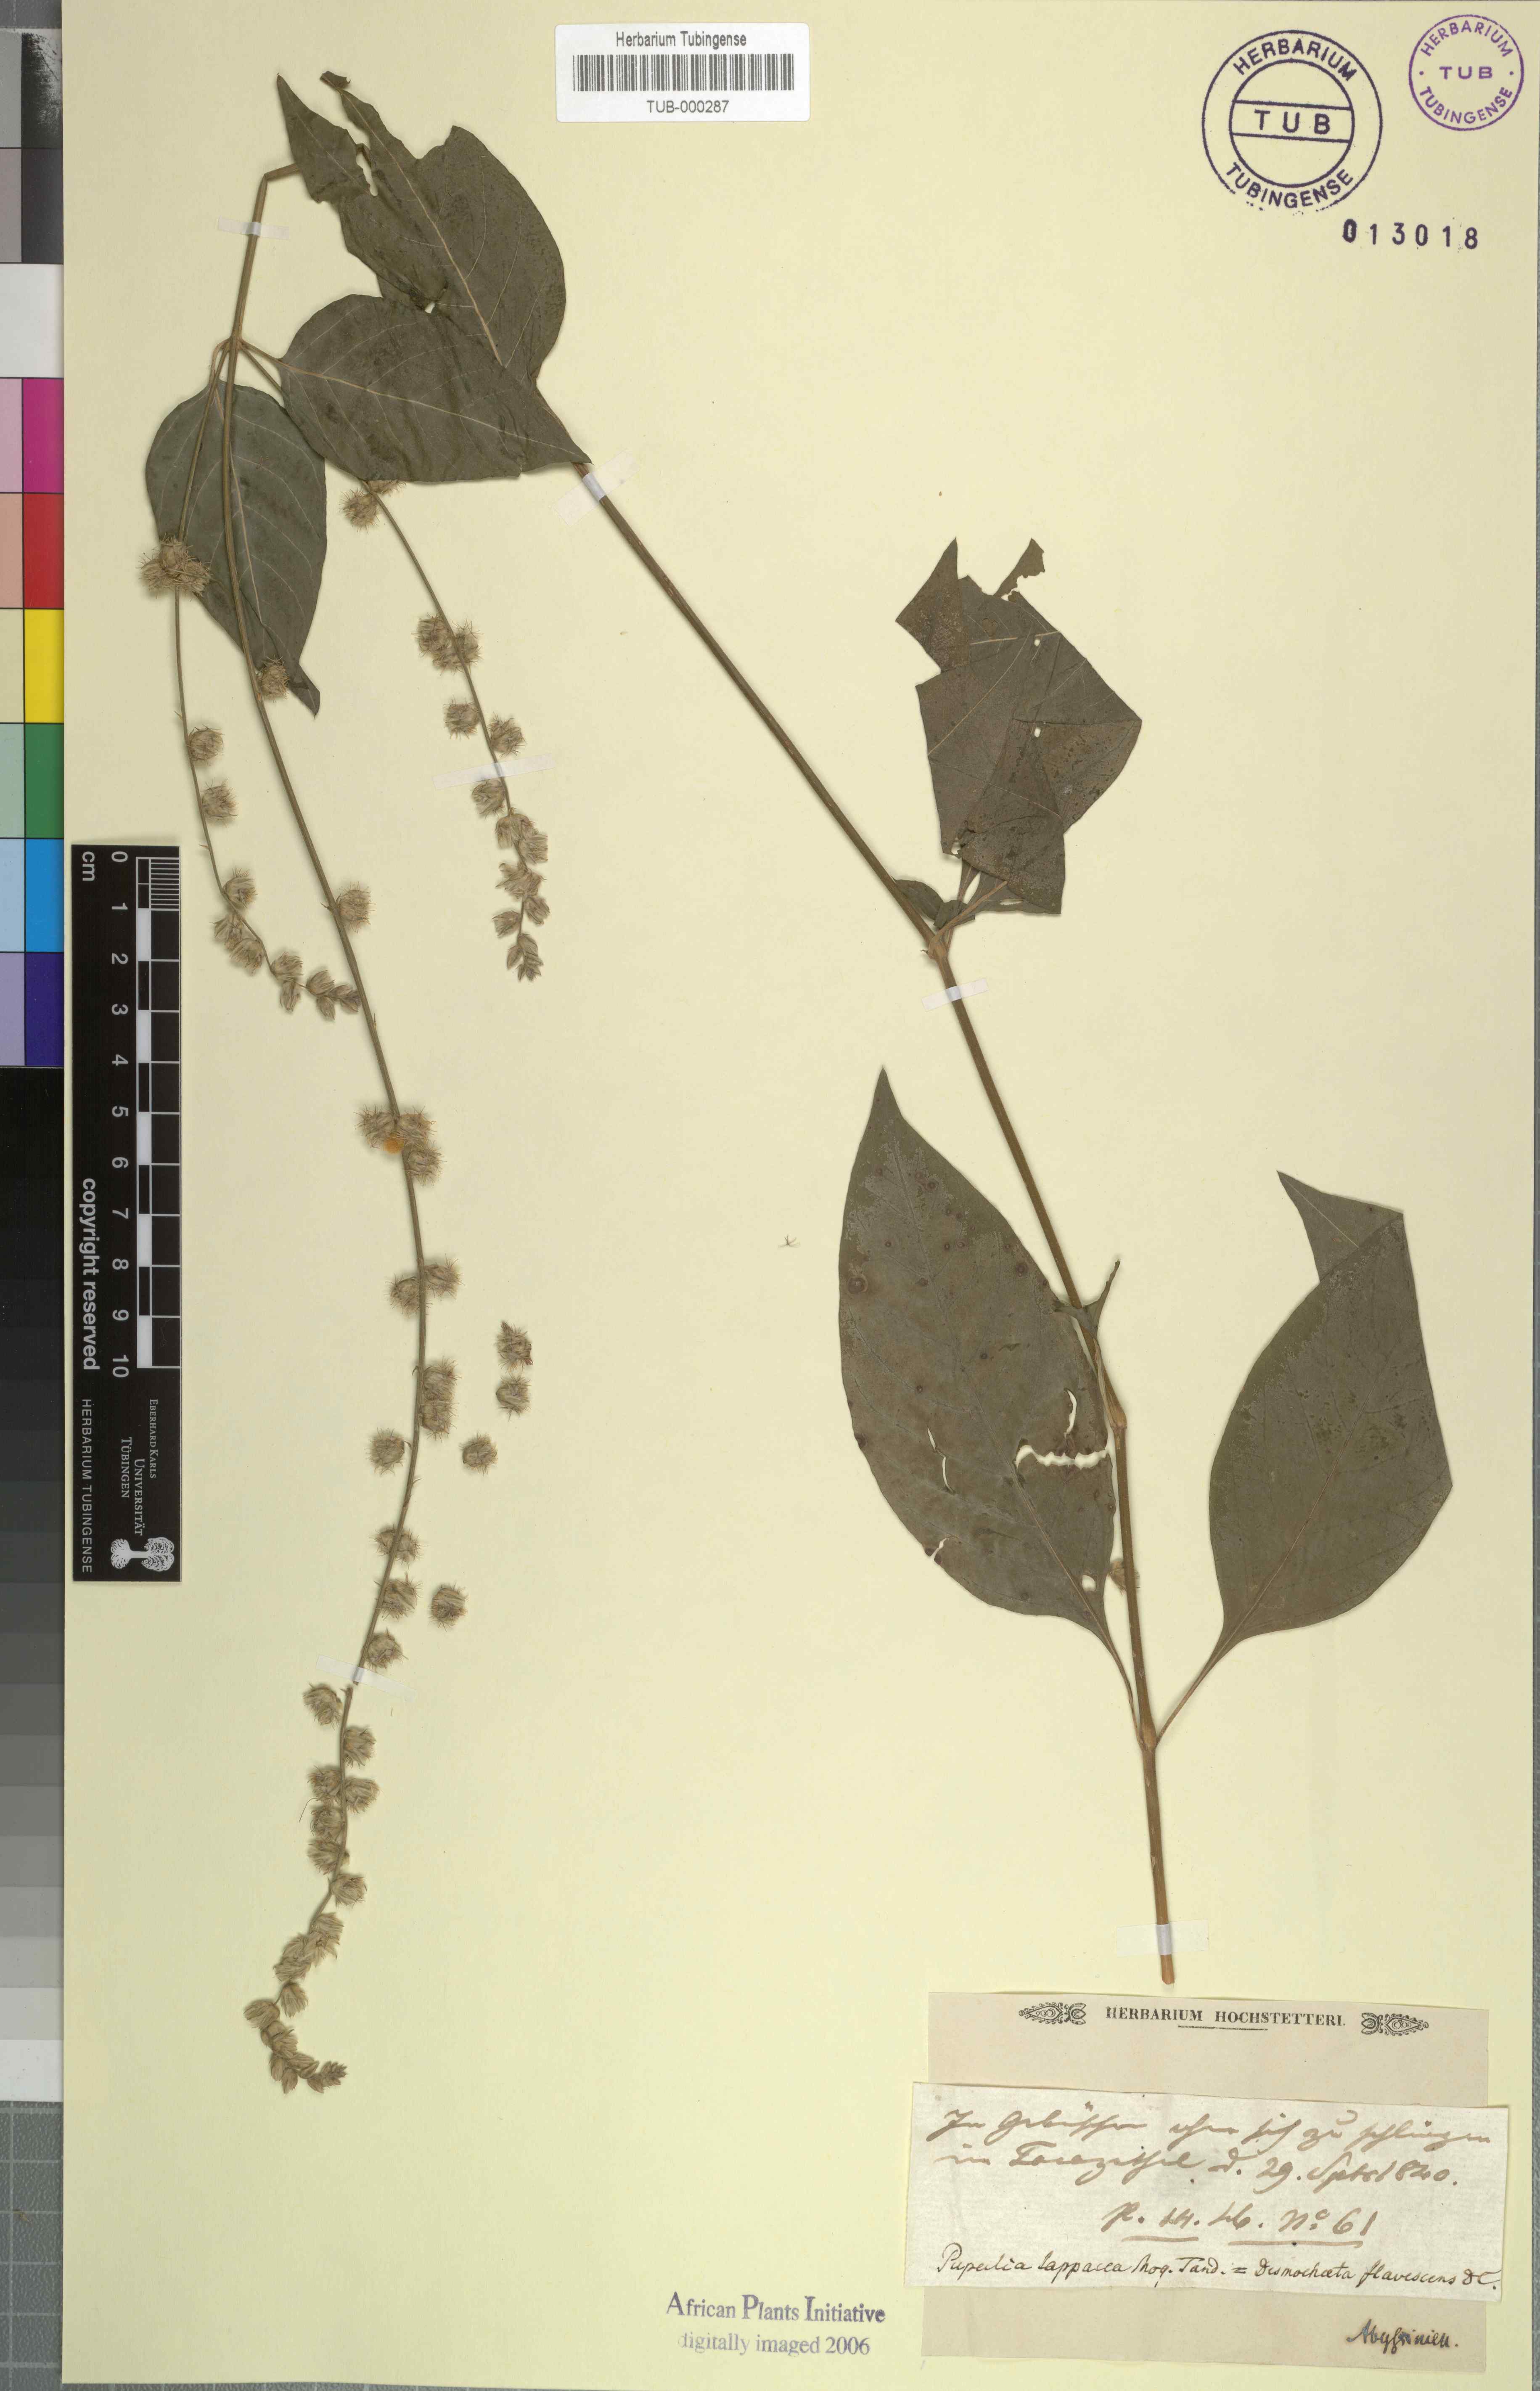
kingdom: Plantae
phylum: Tracheophyta
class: Magnoliopsida
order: Caryophyllales
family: Amaranthaceae
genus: Pupalia
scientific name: Pupalia lappacea
